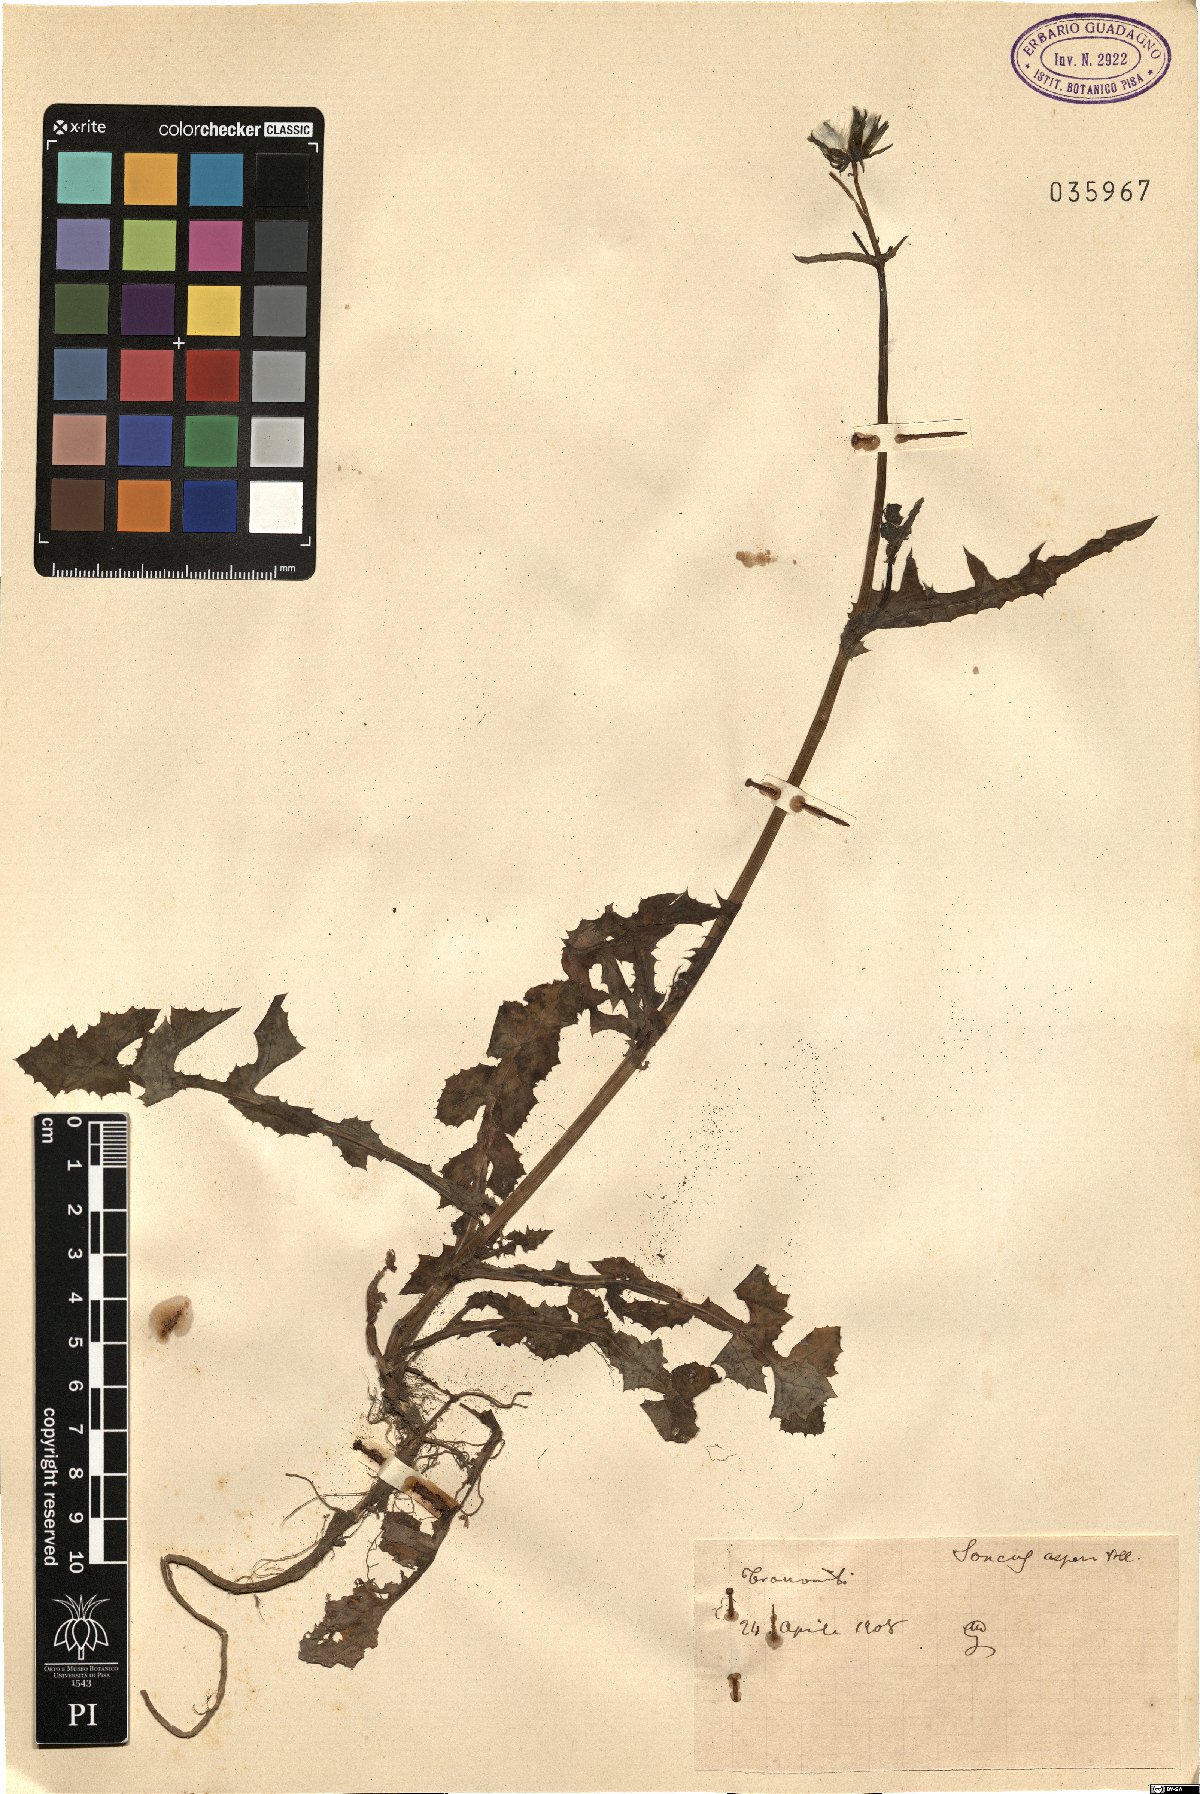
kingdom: Plantae
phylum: Tracheophyta
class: Magnoliopsida
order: Asterales
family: Asteraceae
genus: Sonchus
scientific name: Sonchus asper
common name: Prickly sow-thistle
